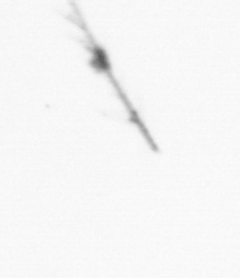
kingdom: Chromista
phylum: Ochrophyta
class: Bacillariophyceae
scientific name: Bacillariophyceae
